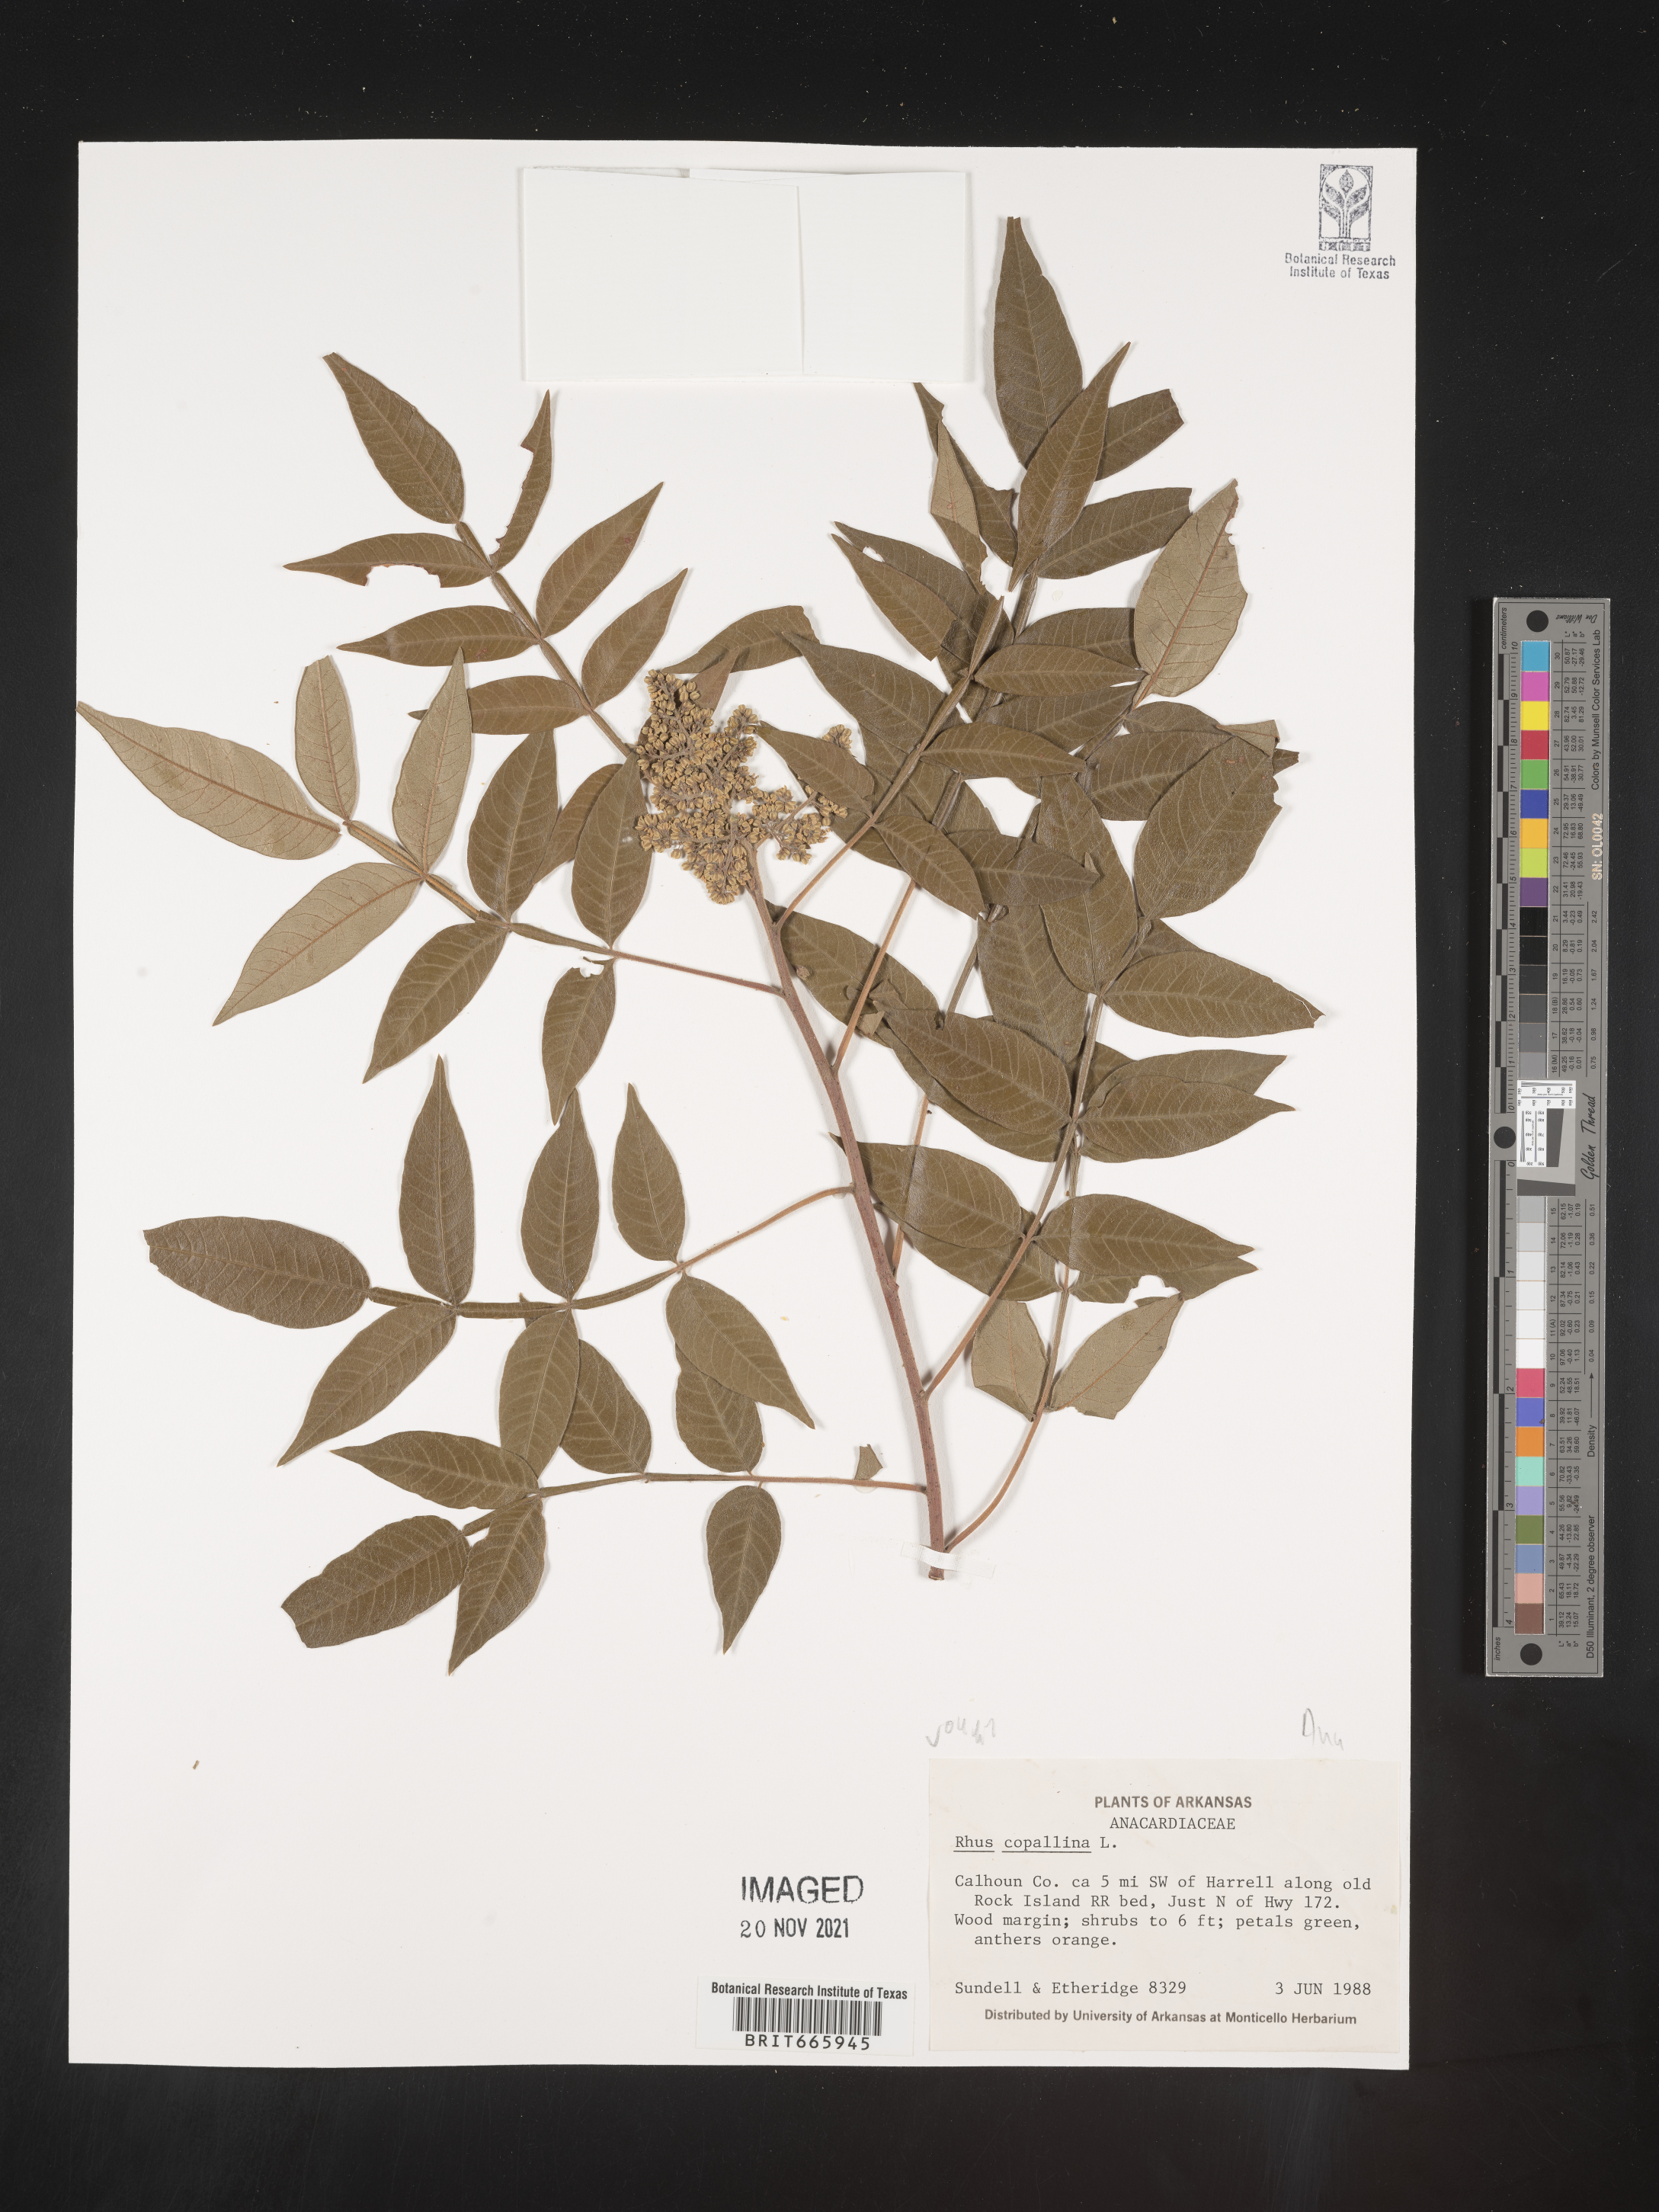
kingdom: Plantae
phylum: Tracheophyta
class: Magnoliopsida
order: Sapindales
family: Anacardiaceae
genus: Rhus
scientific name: Rhus copallina
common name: Shining sumac
